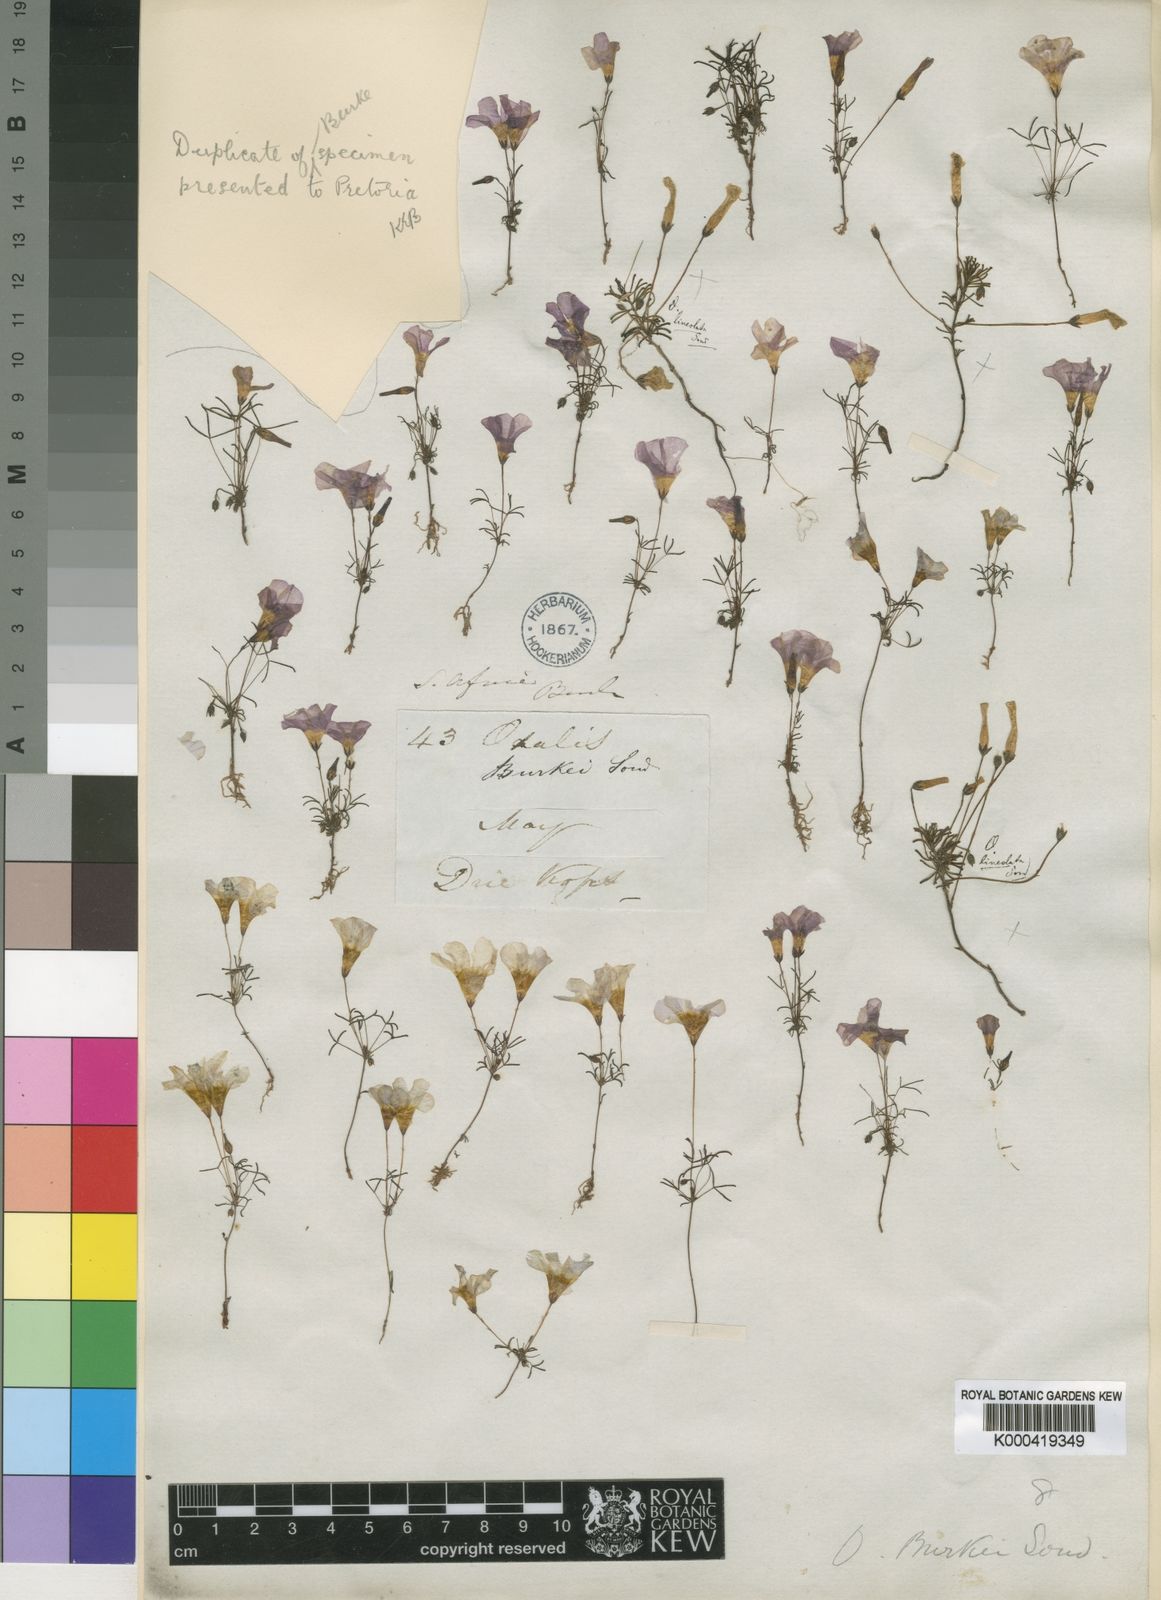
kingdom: Plantae
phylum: Tracheophyta
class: Magnoliopsida
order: Oxalidales
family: Oxalidaceae
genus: Oxalis
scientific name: Oxalis burkei
